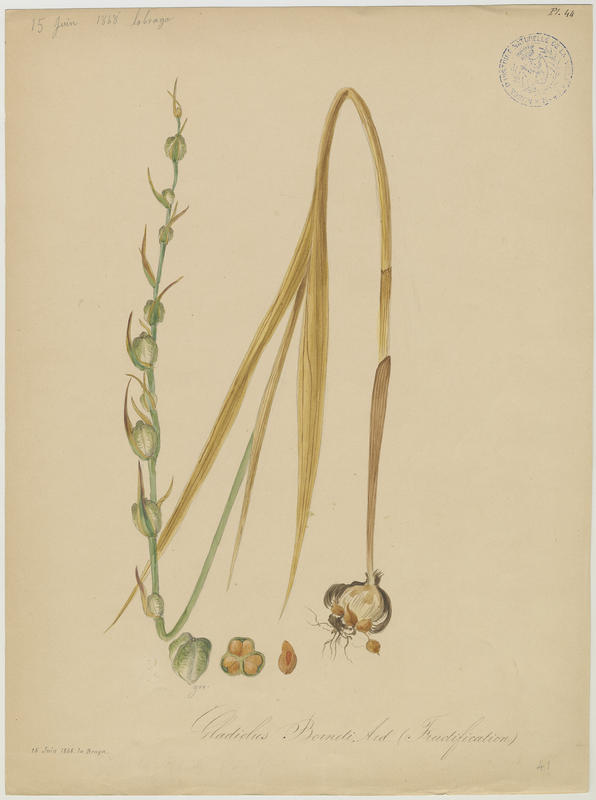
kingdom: Plantae
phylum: Tracheophyta
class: Liliopsida
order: Asparagales
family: Iridaceae
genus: Gladiolus
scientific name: Gladiolus byzantinus
